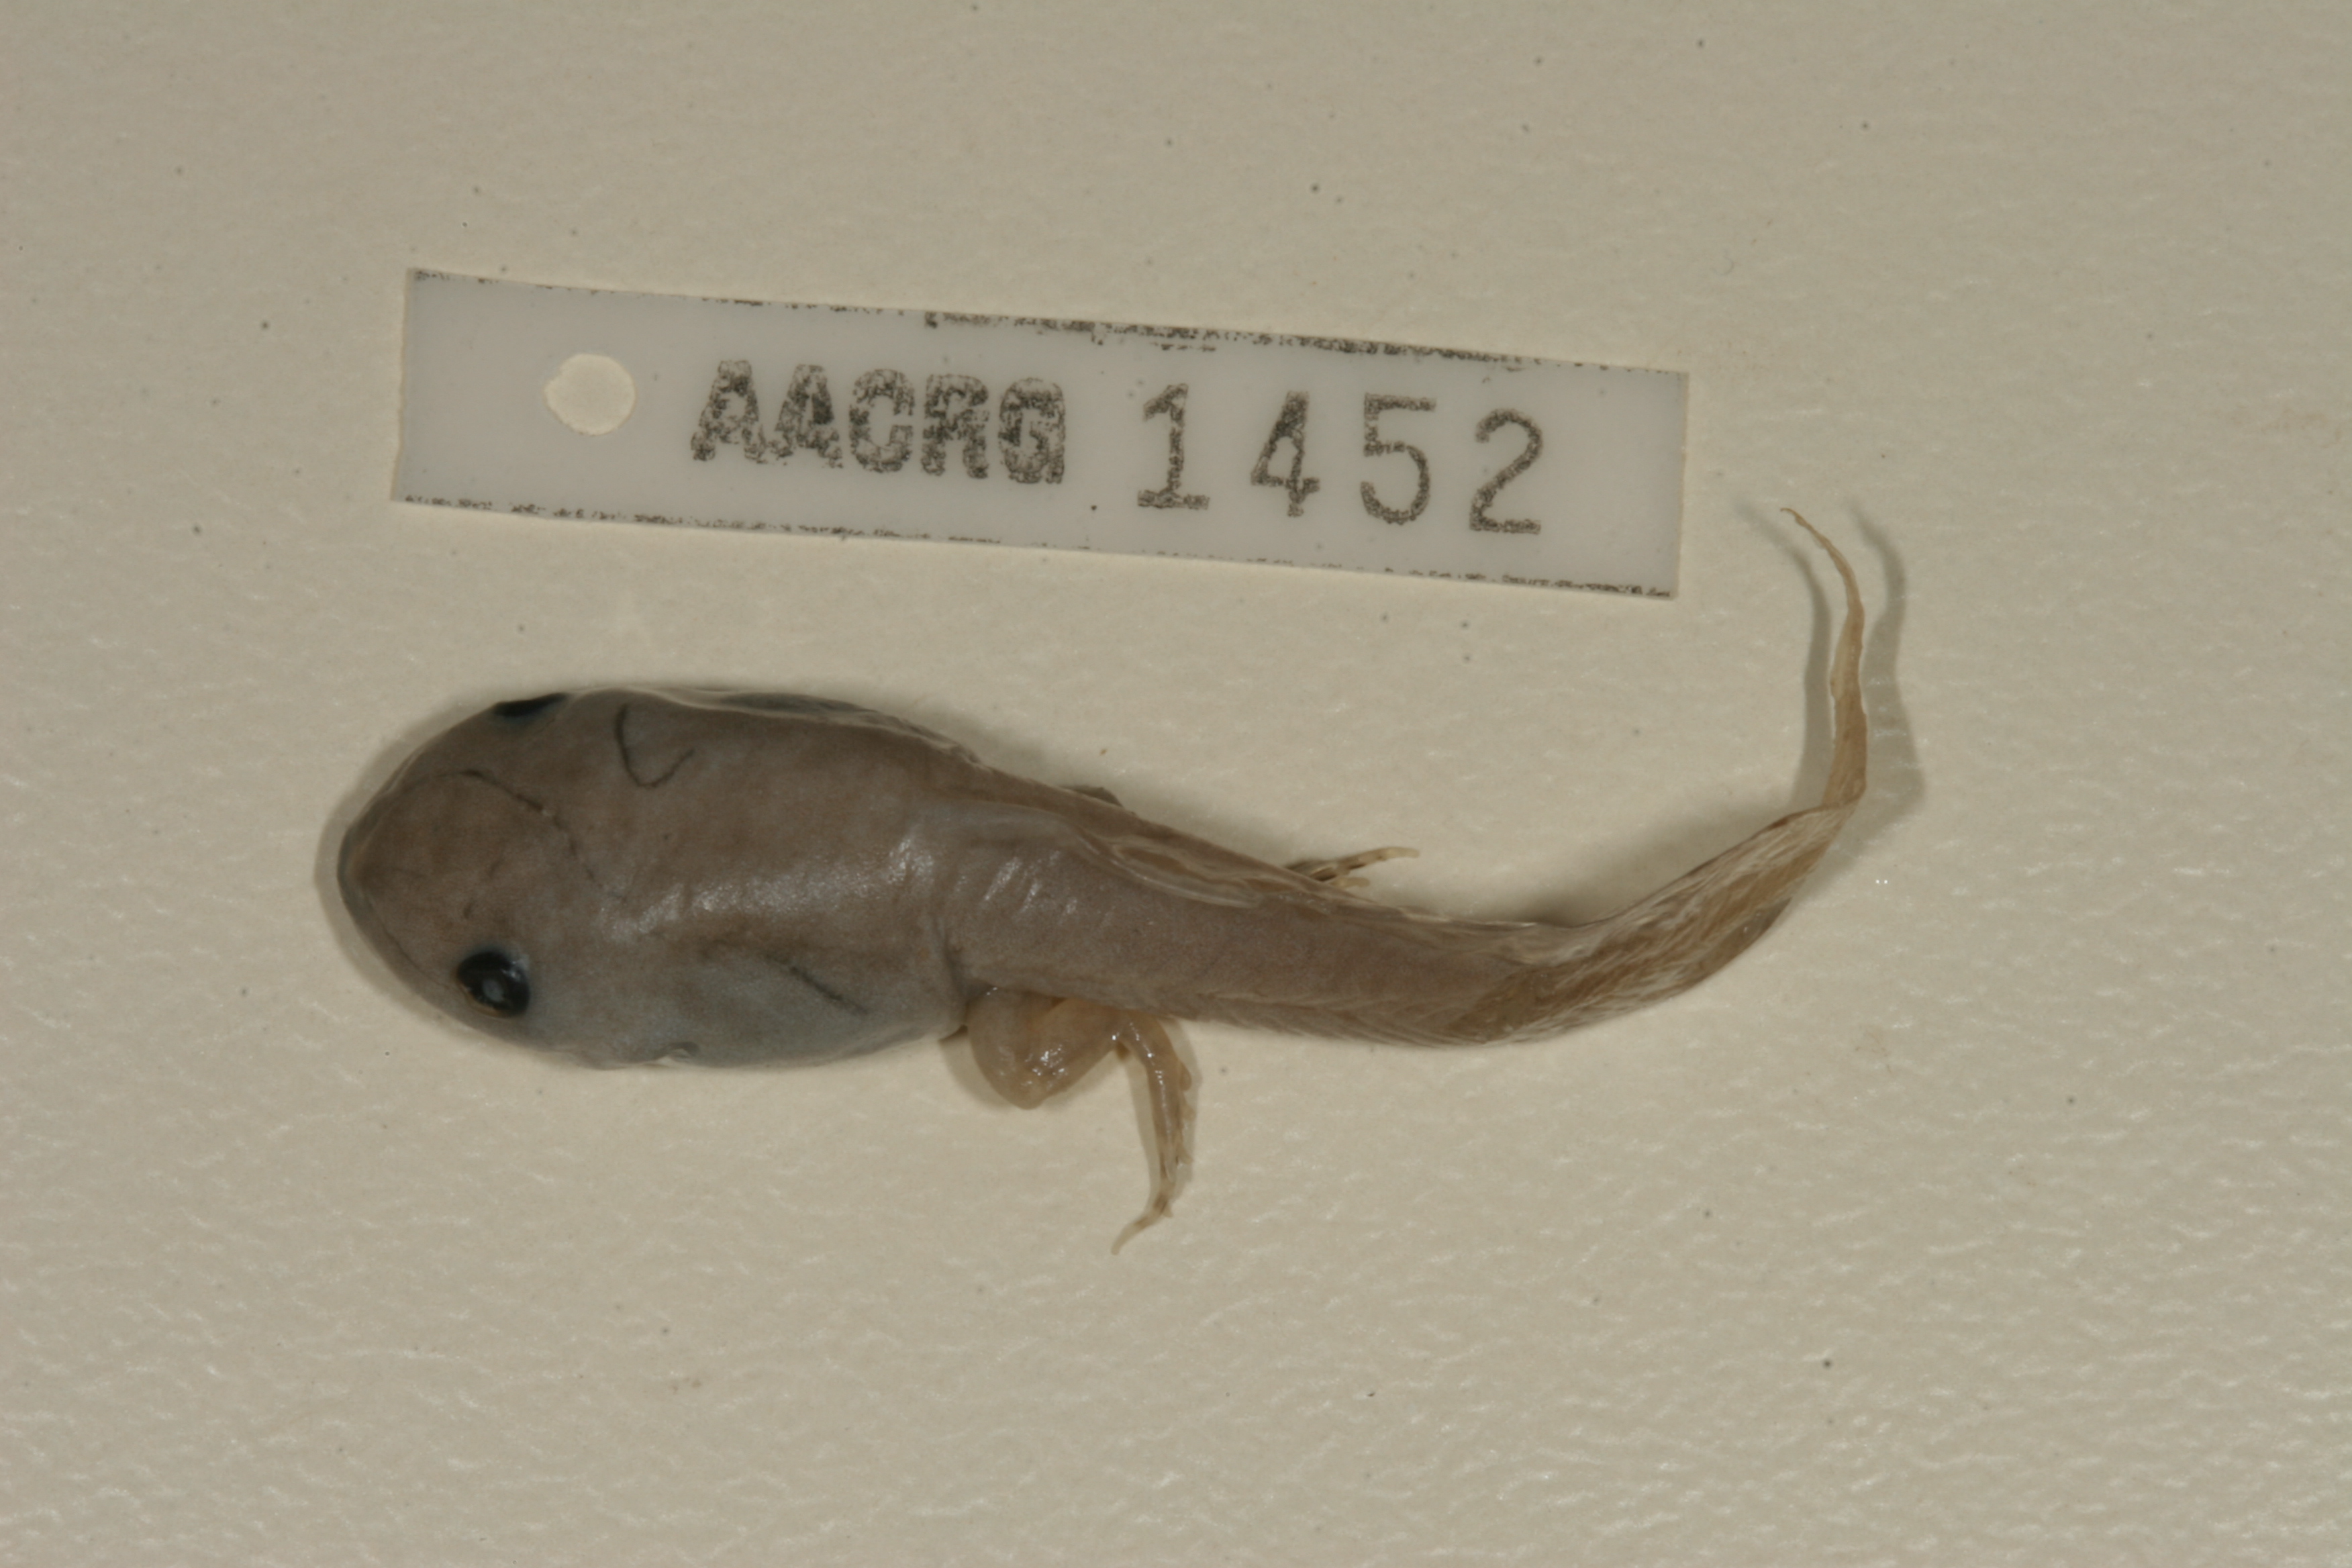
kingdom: Animalia
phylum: Chordata
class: Amphibia
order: Anura
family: Hemisotidae
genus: Hemisus
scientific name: Hemisus marmoratus
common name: Mottled shovel-nosed frog
